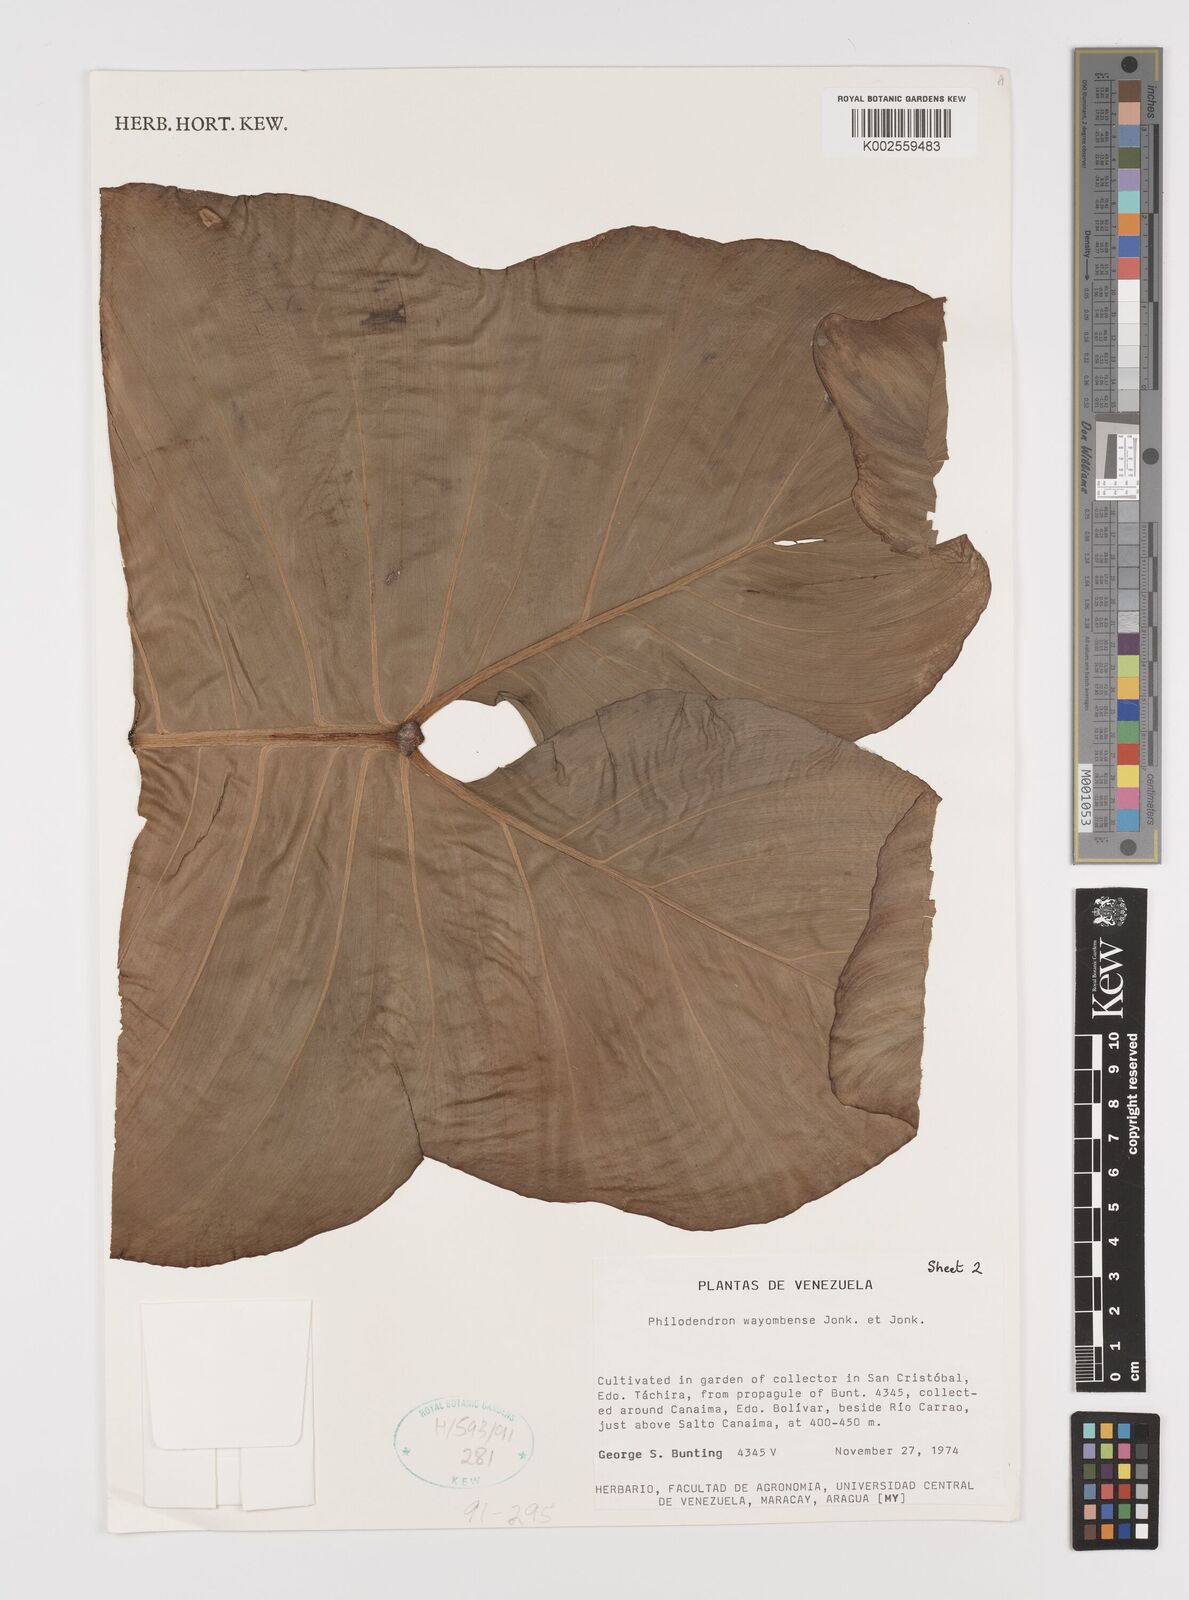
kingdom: Plantae
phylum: Tracheophyta
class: Liliopsida
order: Alismatales
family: Araceae
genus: Philodendron
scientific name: Philodendron bipennifolium
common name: Fiddle-leaf philodendron
